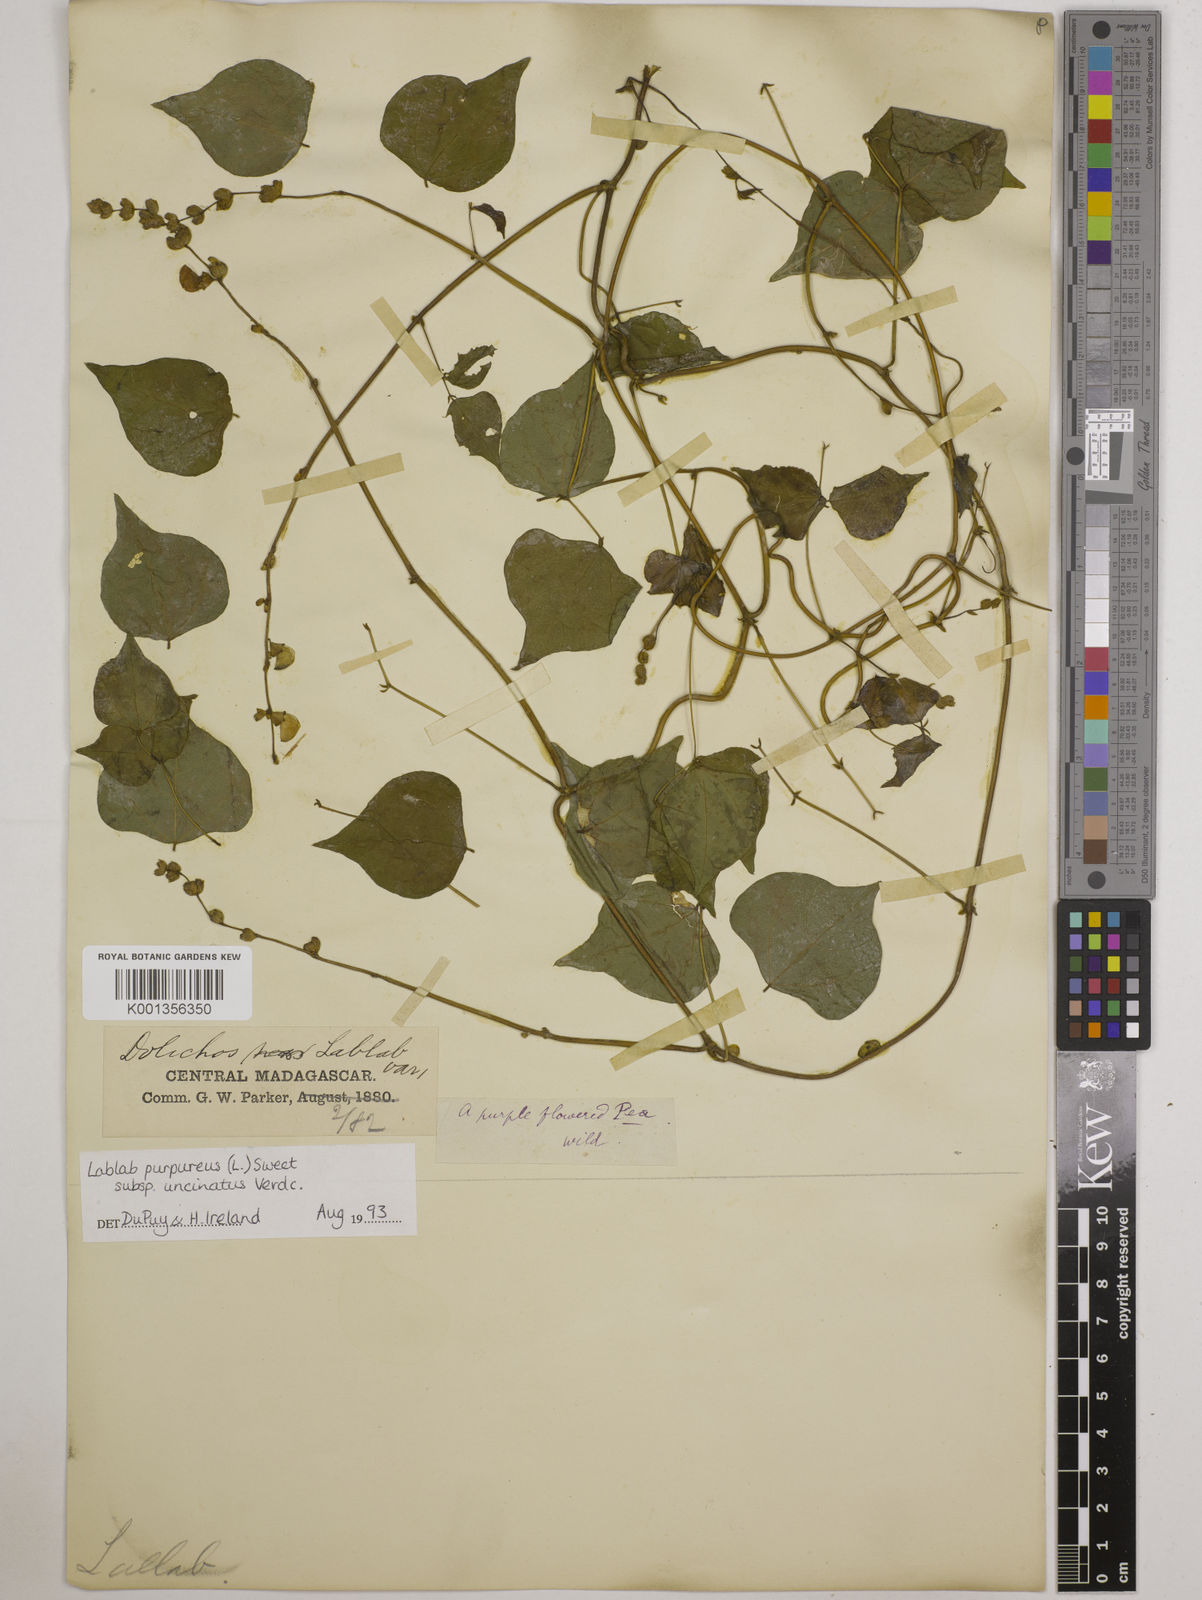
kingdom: Plantae
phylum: Tracheophyta
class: Magnoliopsida
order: Fabales
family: Fabaceae
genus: Lablab
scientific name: Lablab purpureus
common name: Lablab-bean
